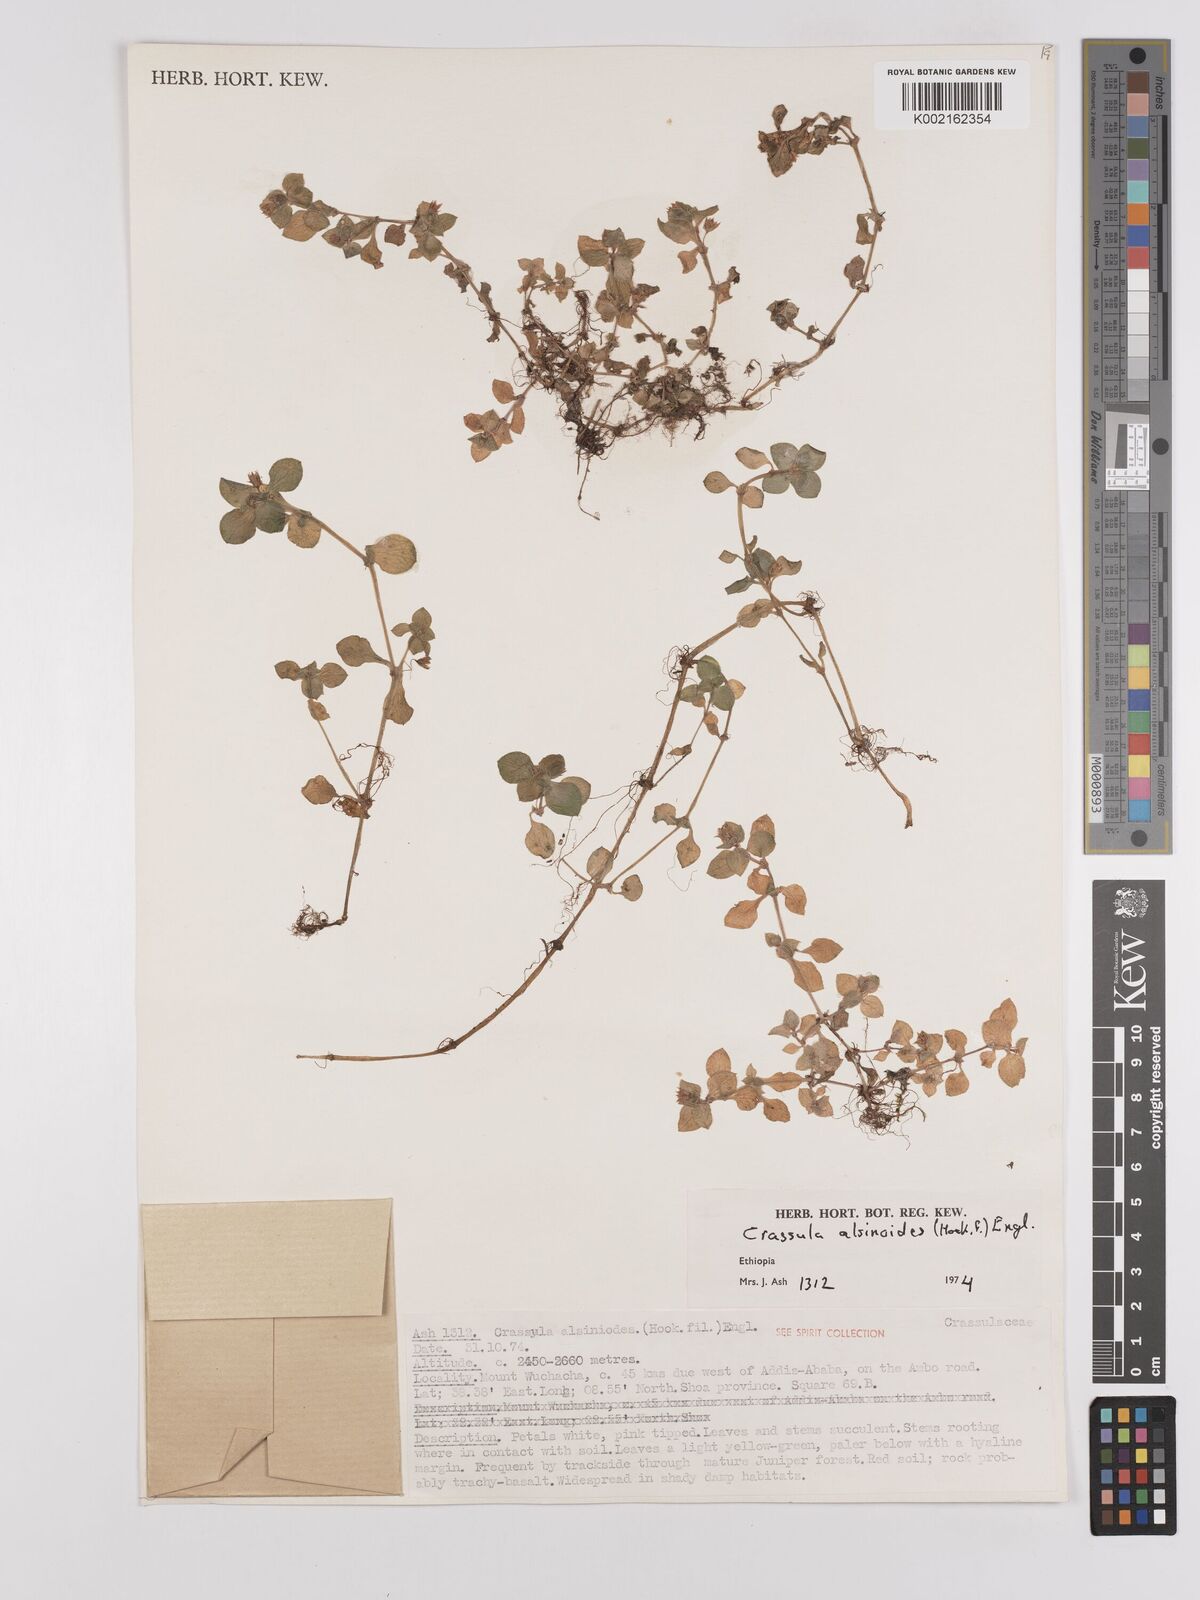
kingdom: Plantae
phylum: Tracheophyta
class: Magnoliopsida
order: Saxifragales
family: Crassulaceae
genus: Crassula
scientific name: Crassula alsinoides
